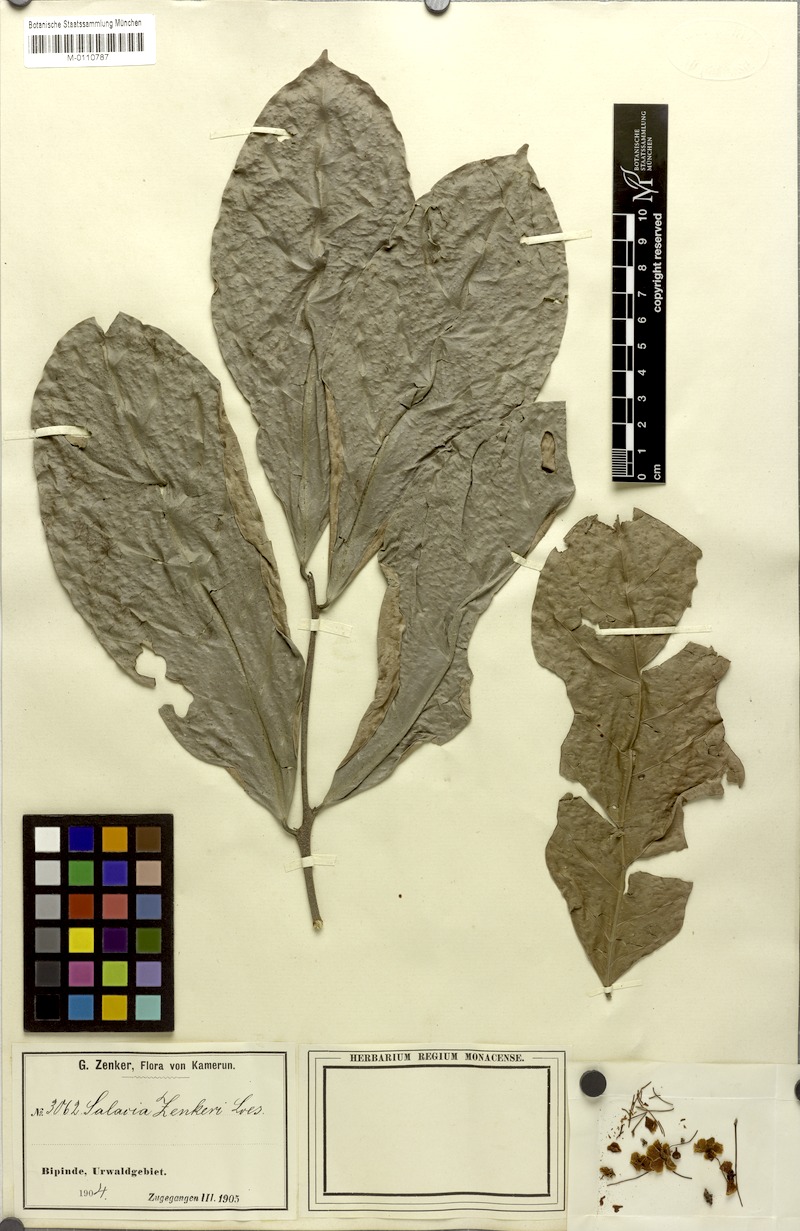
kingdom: Plantae
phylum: Tracheophyta
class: Magnoliopsida
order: Celastrales
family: Celastraceae
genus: Salacia
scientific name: Salacia zenkeri
